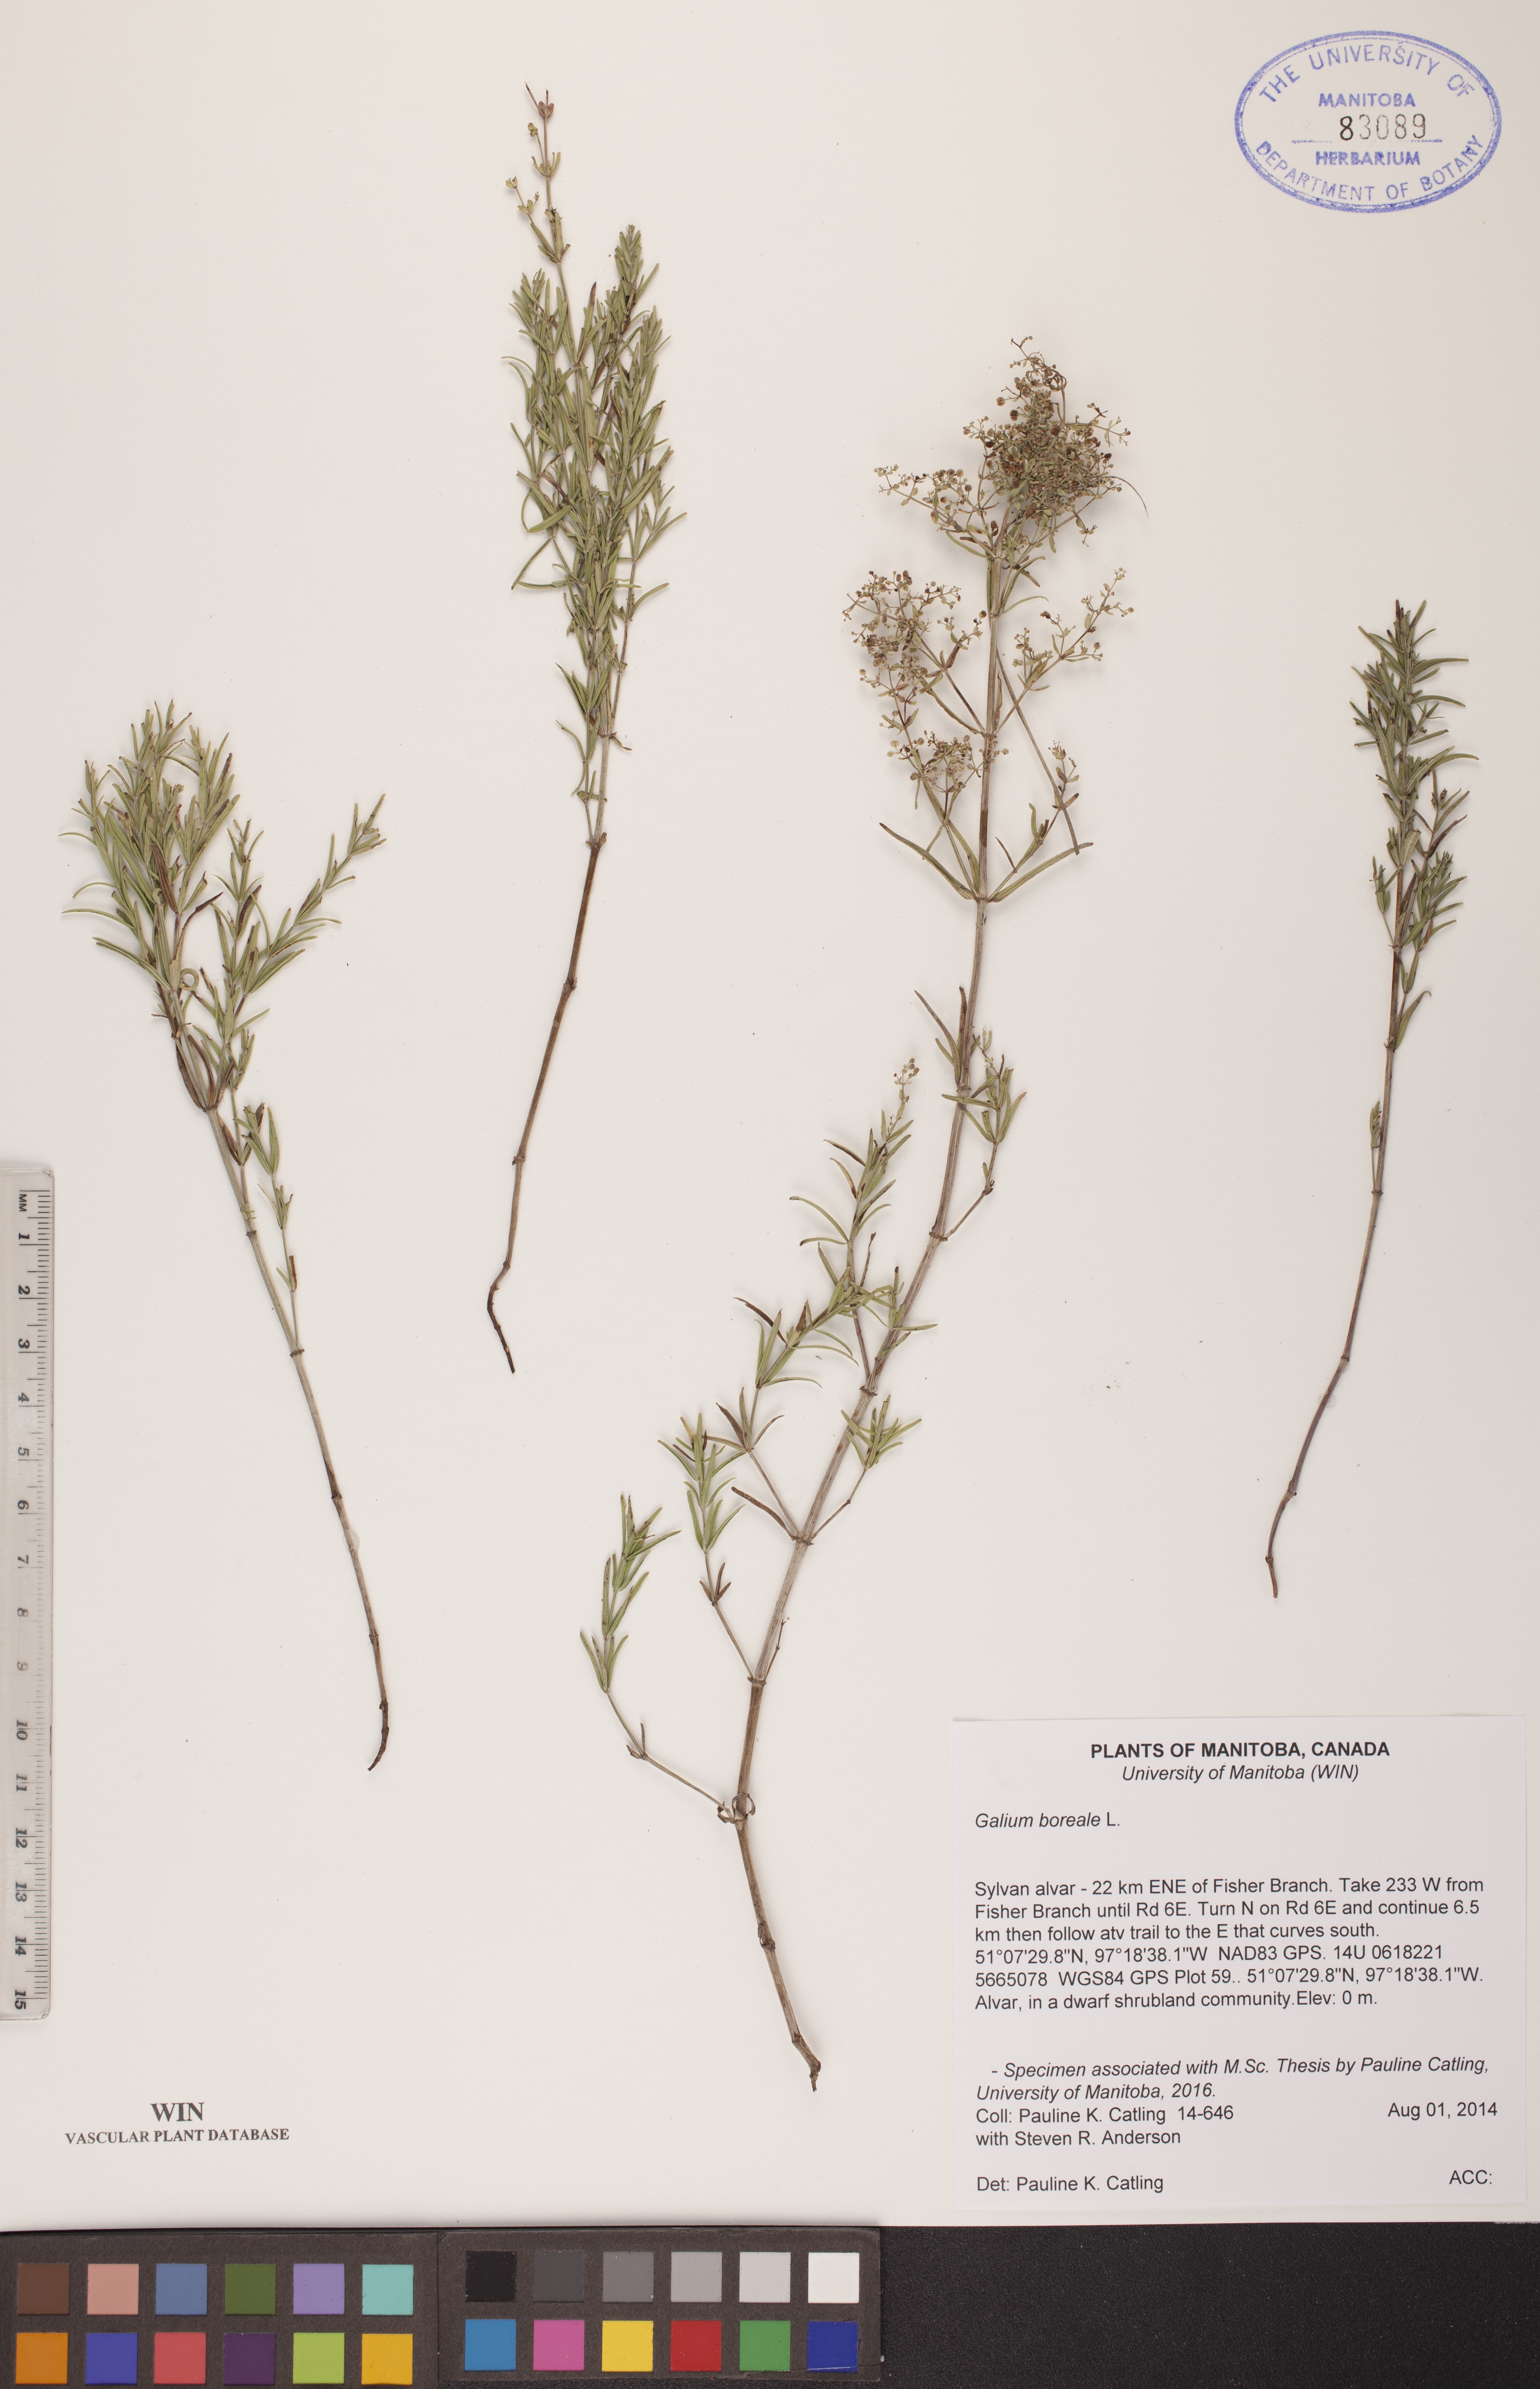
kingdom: Plantae
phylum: Tracheophyta
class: Magnoliopsida
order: Gentianales
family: Rubiaceae
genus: Galium
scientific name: Galium boreale
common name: Northern bedstraw
